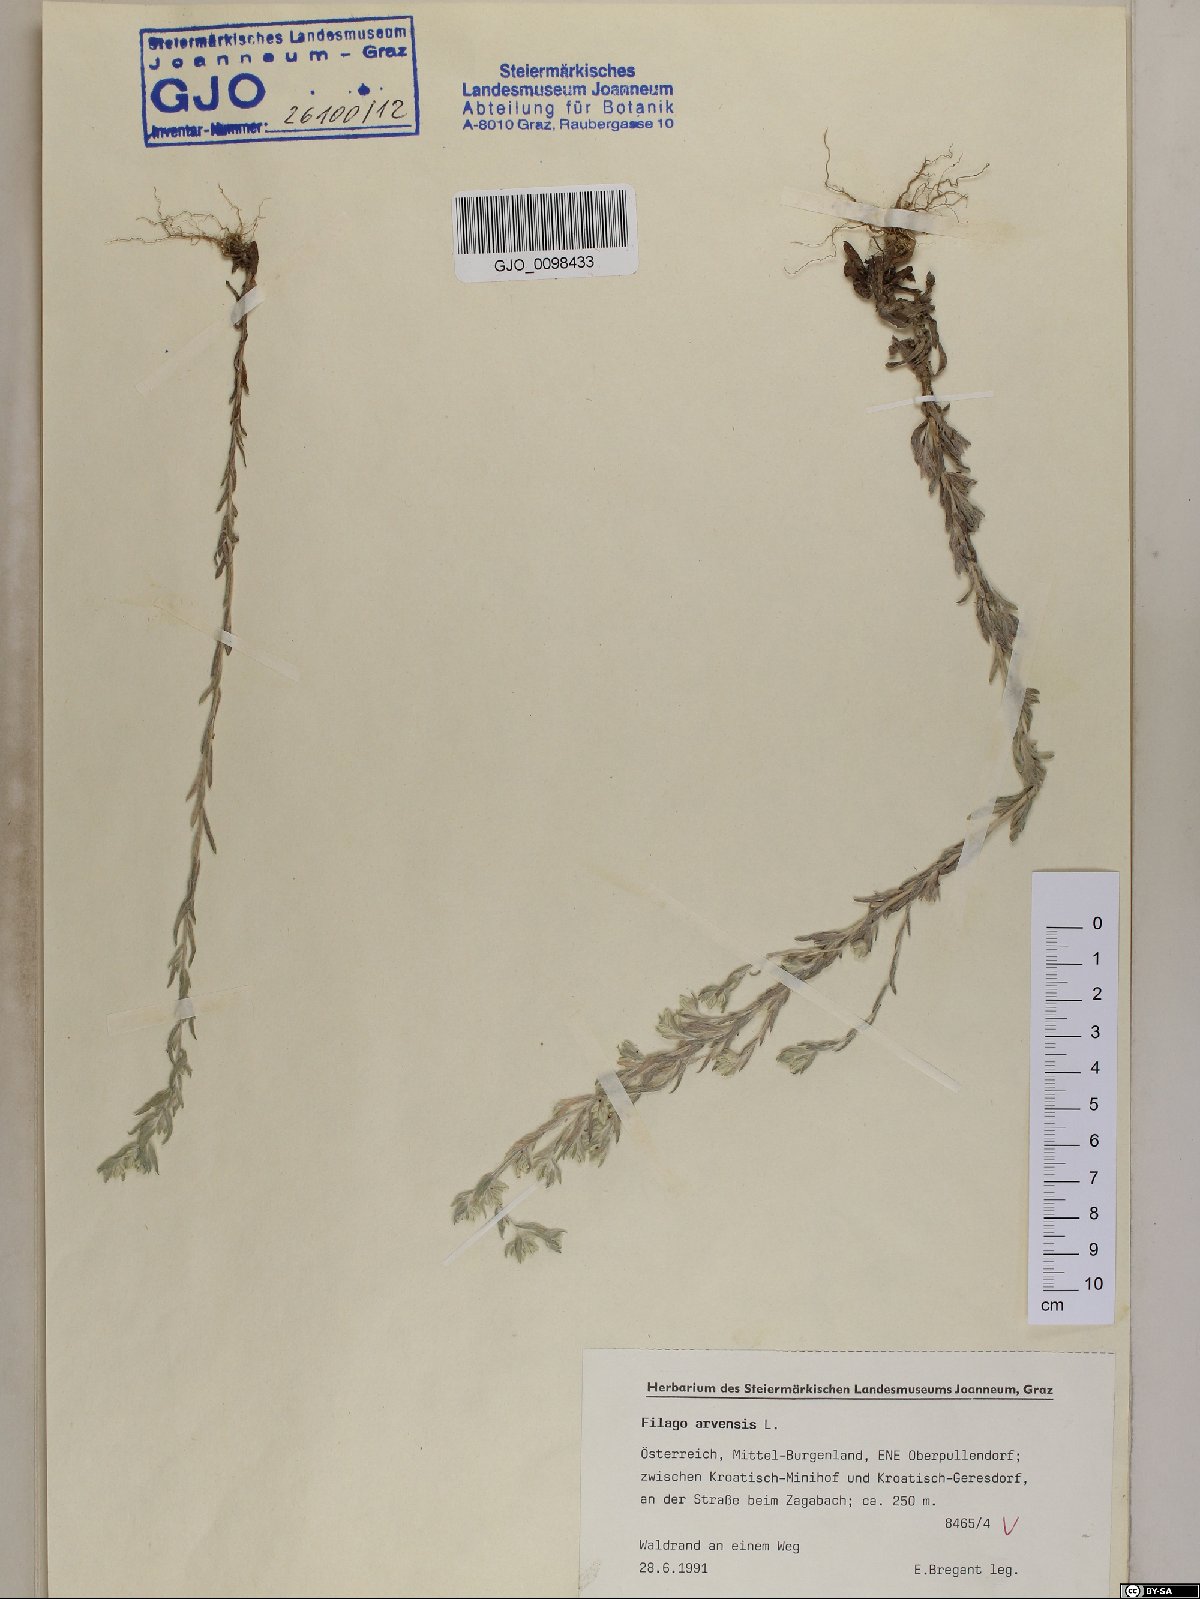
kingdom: Plantae
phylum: Tracheophyta
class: Magnoliopsida
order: Asterales
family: Asteraceae
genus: Filago
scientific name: Filago arvensis
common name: Field cudweed
